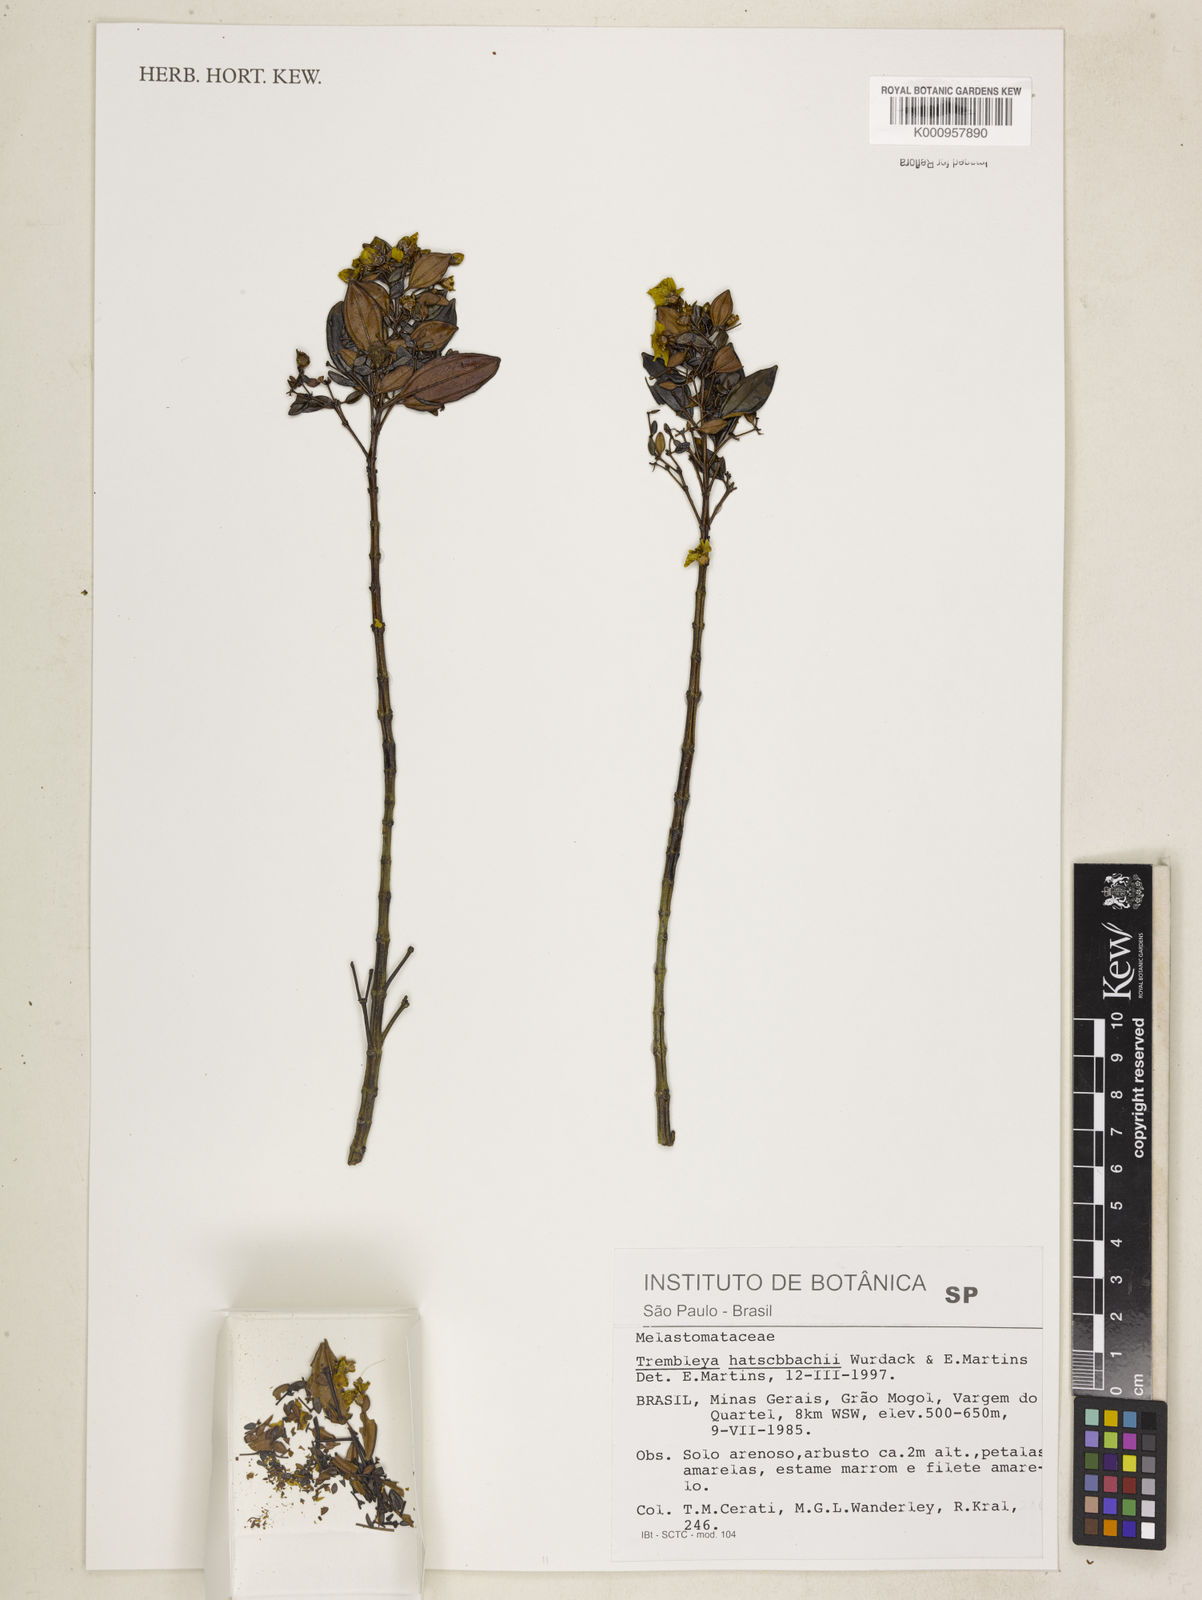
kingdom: Plantae
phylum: Tracheophyta
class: Magnoliopsida
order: Myrtales
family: Melastomataceae
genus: Microlicia
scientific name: Microlicia flaviflora
